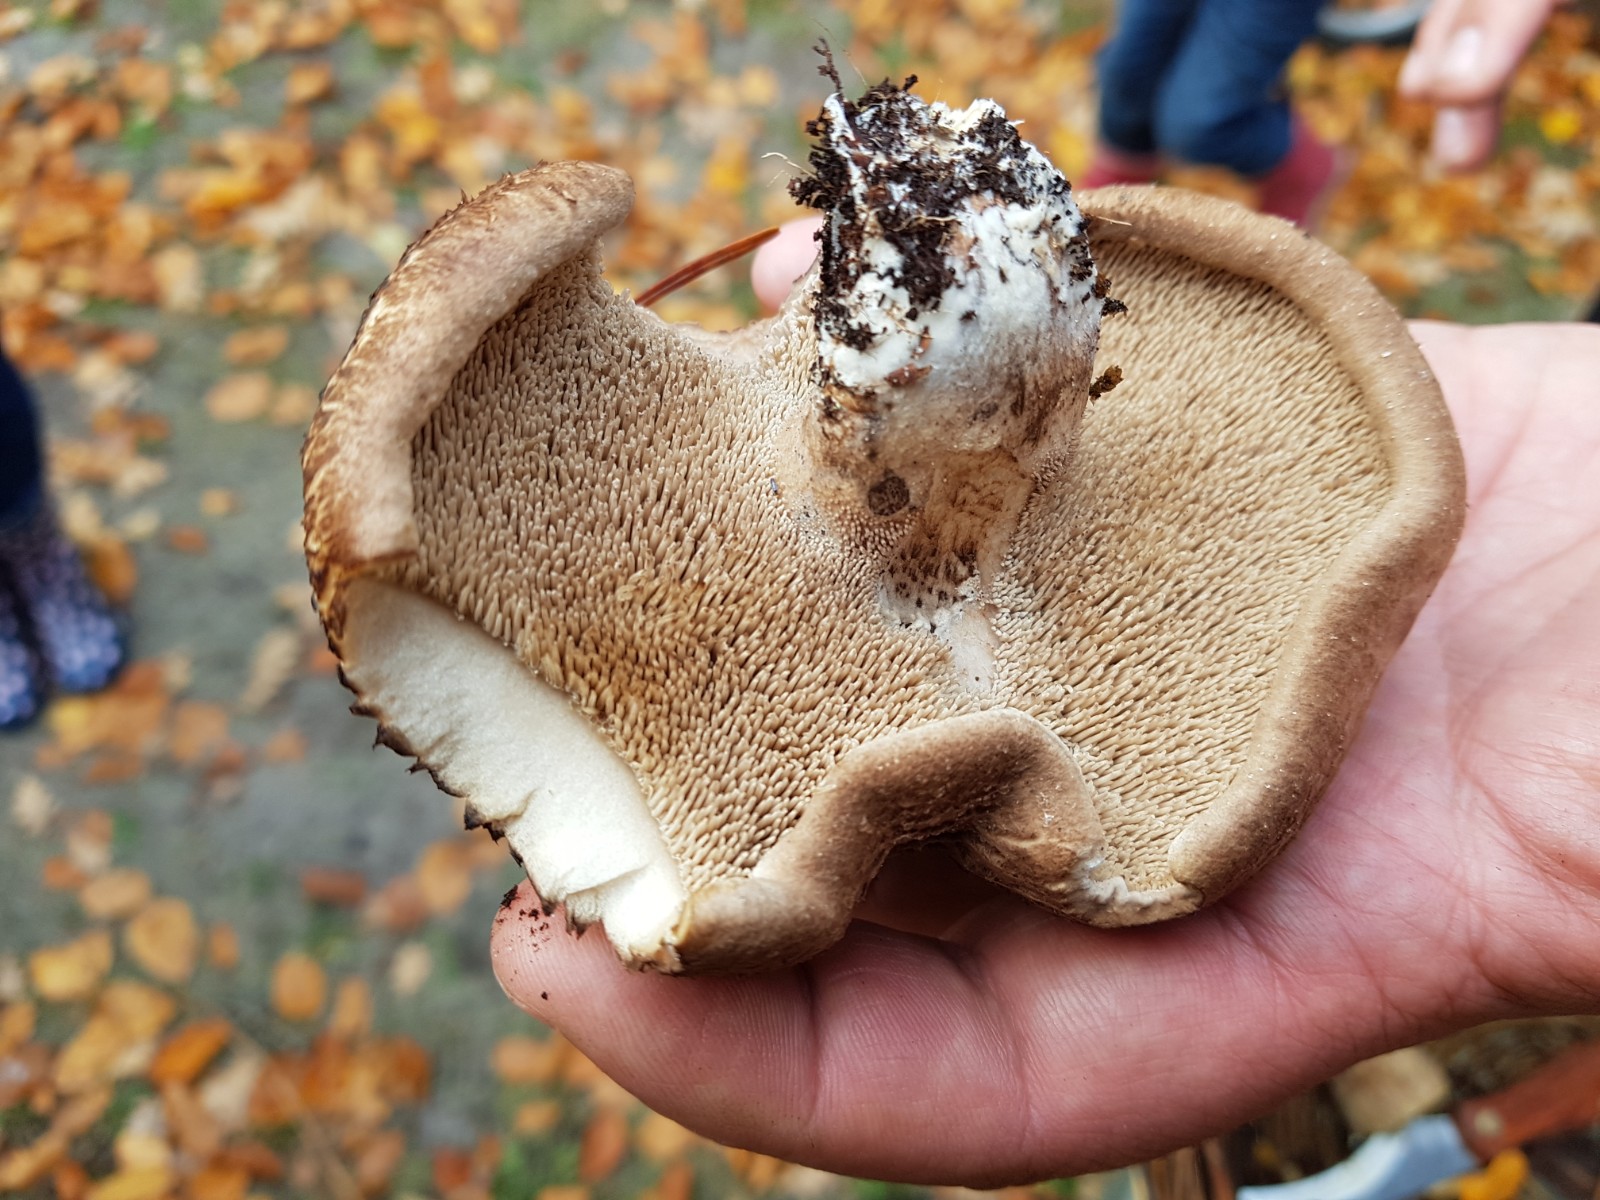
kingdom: Fungi
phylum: Basidiomycota
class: Agaricomycetes
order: Thelephorales
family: Bankeraceae
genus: Sarcodon
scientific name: Sarcodon imbricatus
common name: skællet kødpigsvamp
